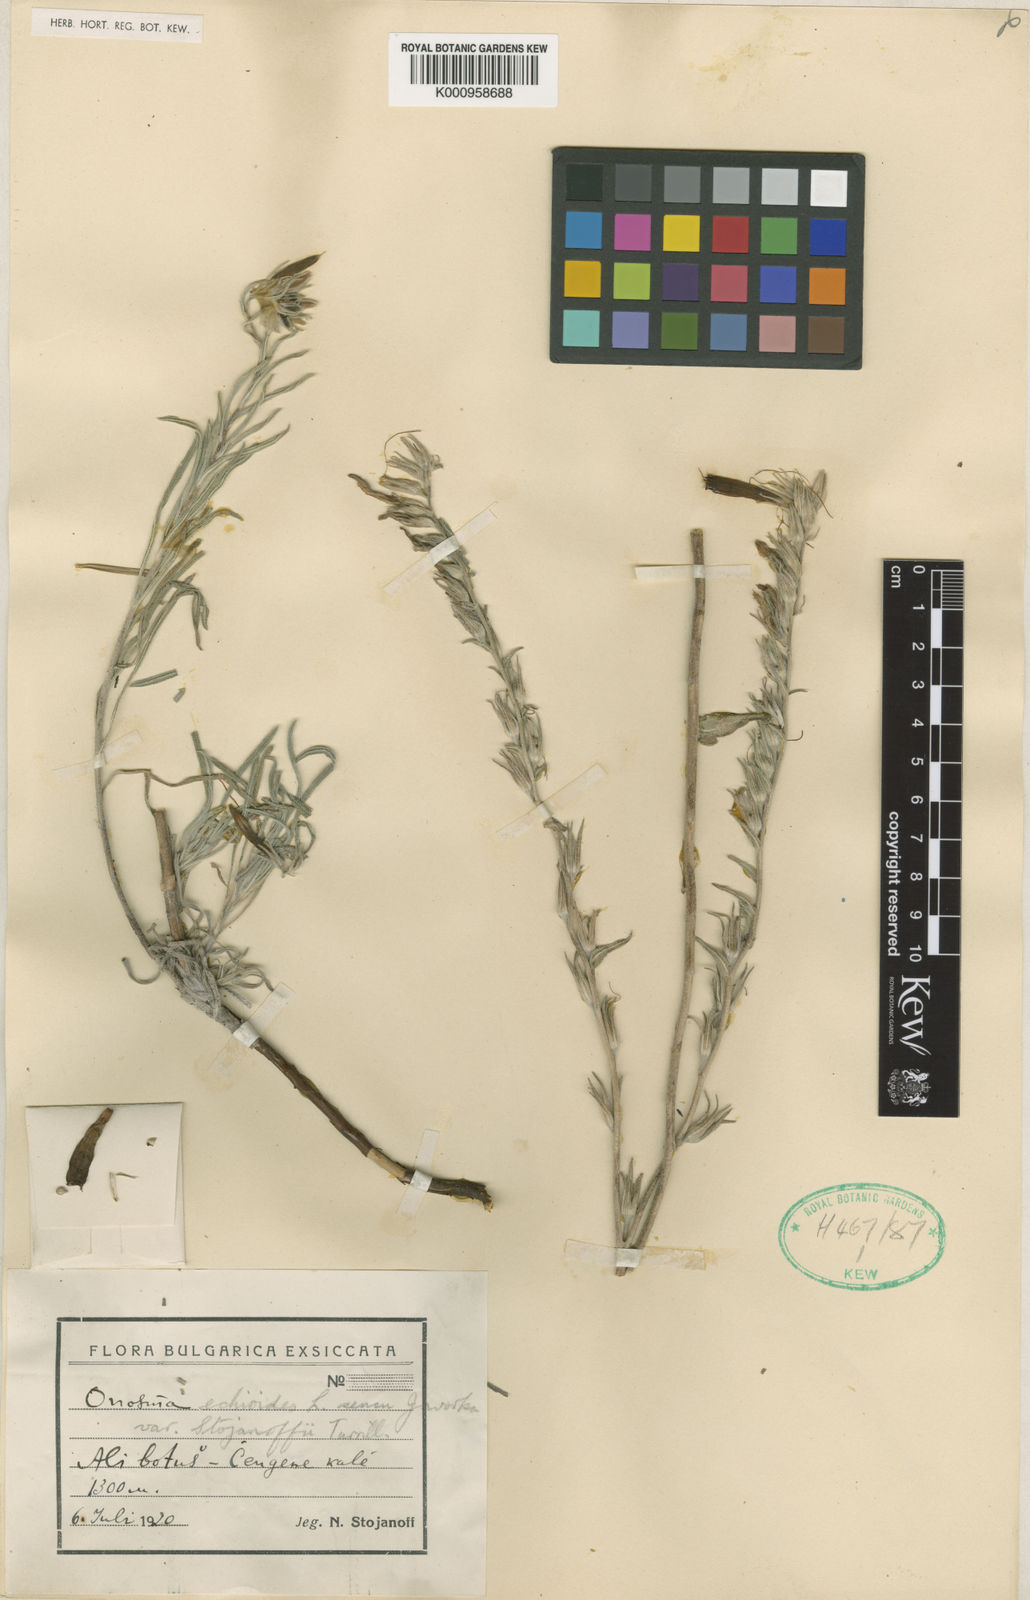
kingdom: Plantae
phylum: Tracheophyta
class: Magnoliopsida
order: Boraginales
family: Boraginaceae
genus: Onosma
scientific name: Onosma echioides
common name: Goldendrop
